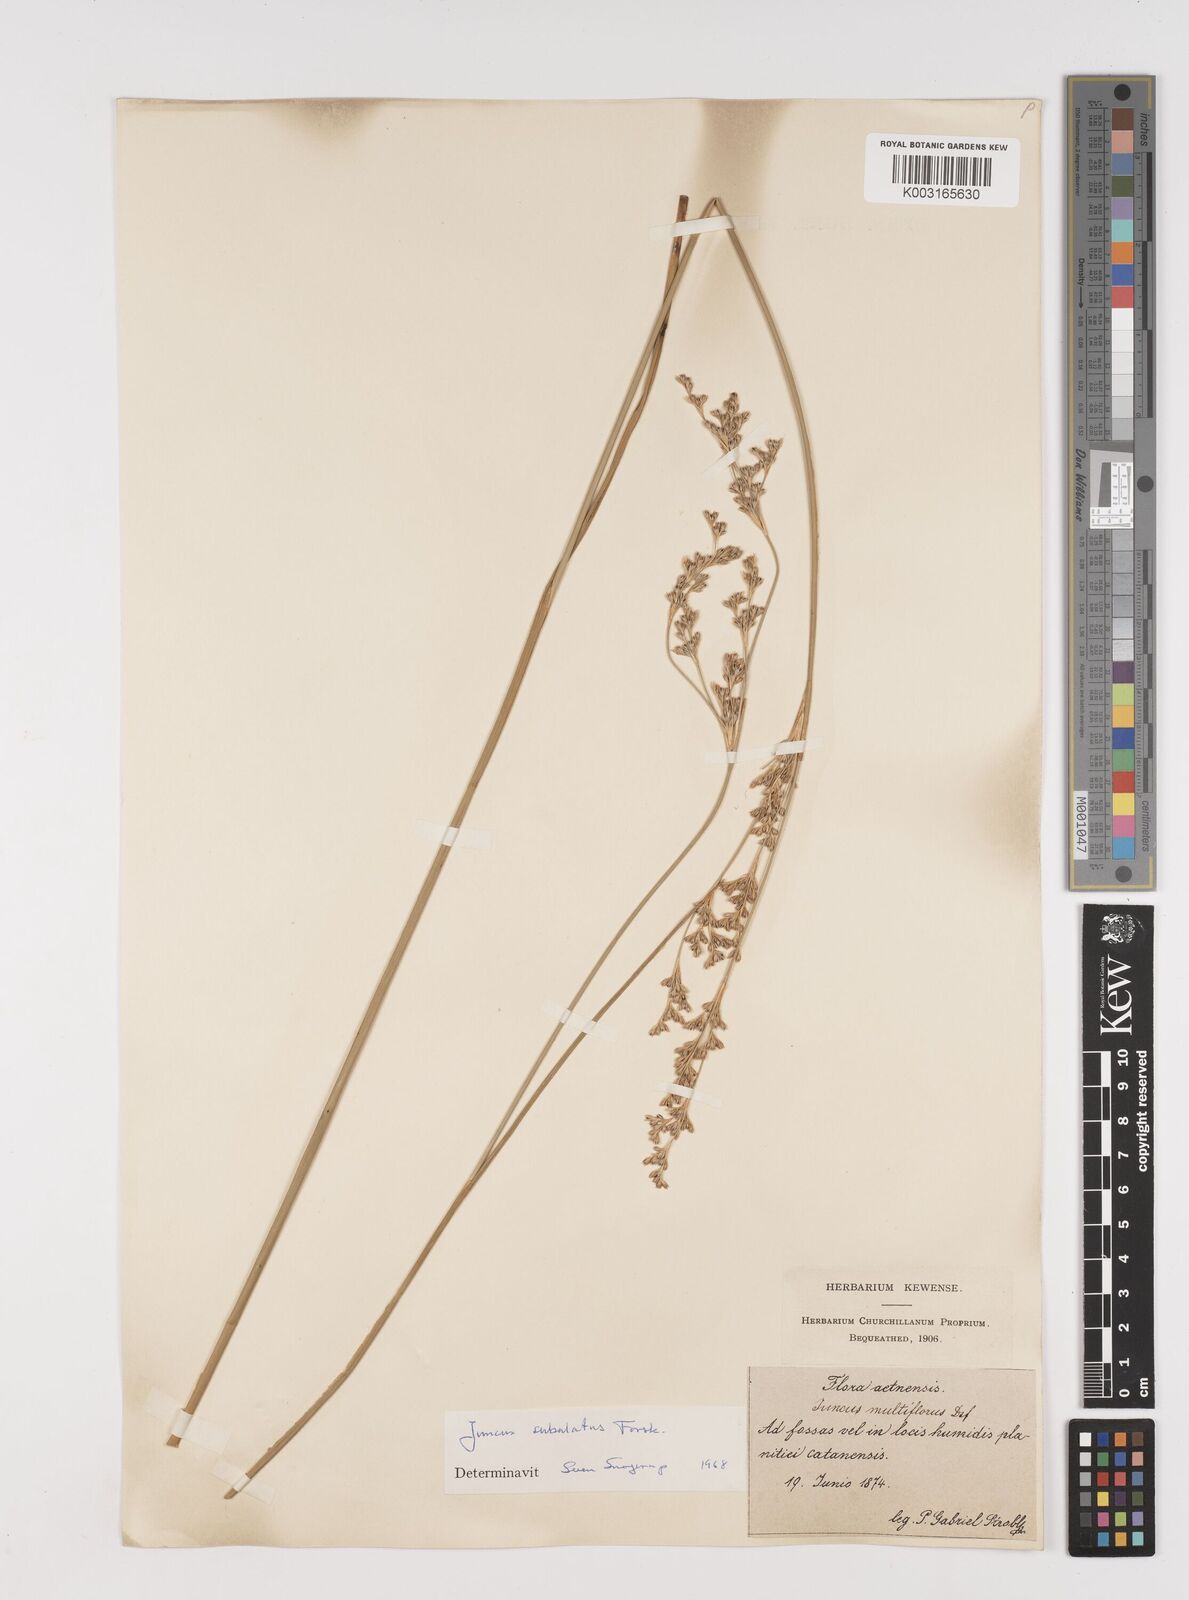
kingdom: Plantae
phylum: Tracheophyta
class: Liliopsida
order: Poales
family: Juncaceae
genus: Juncus
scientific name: Juncus subulatus
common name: Somerset rush
